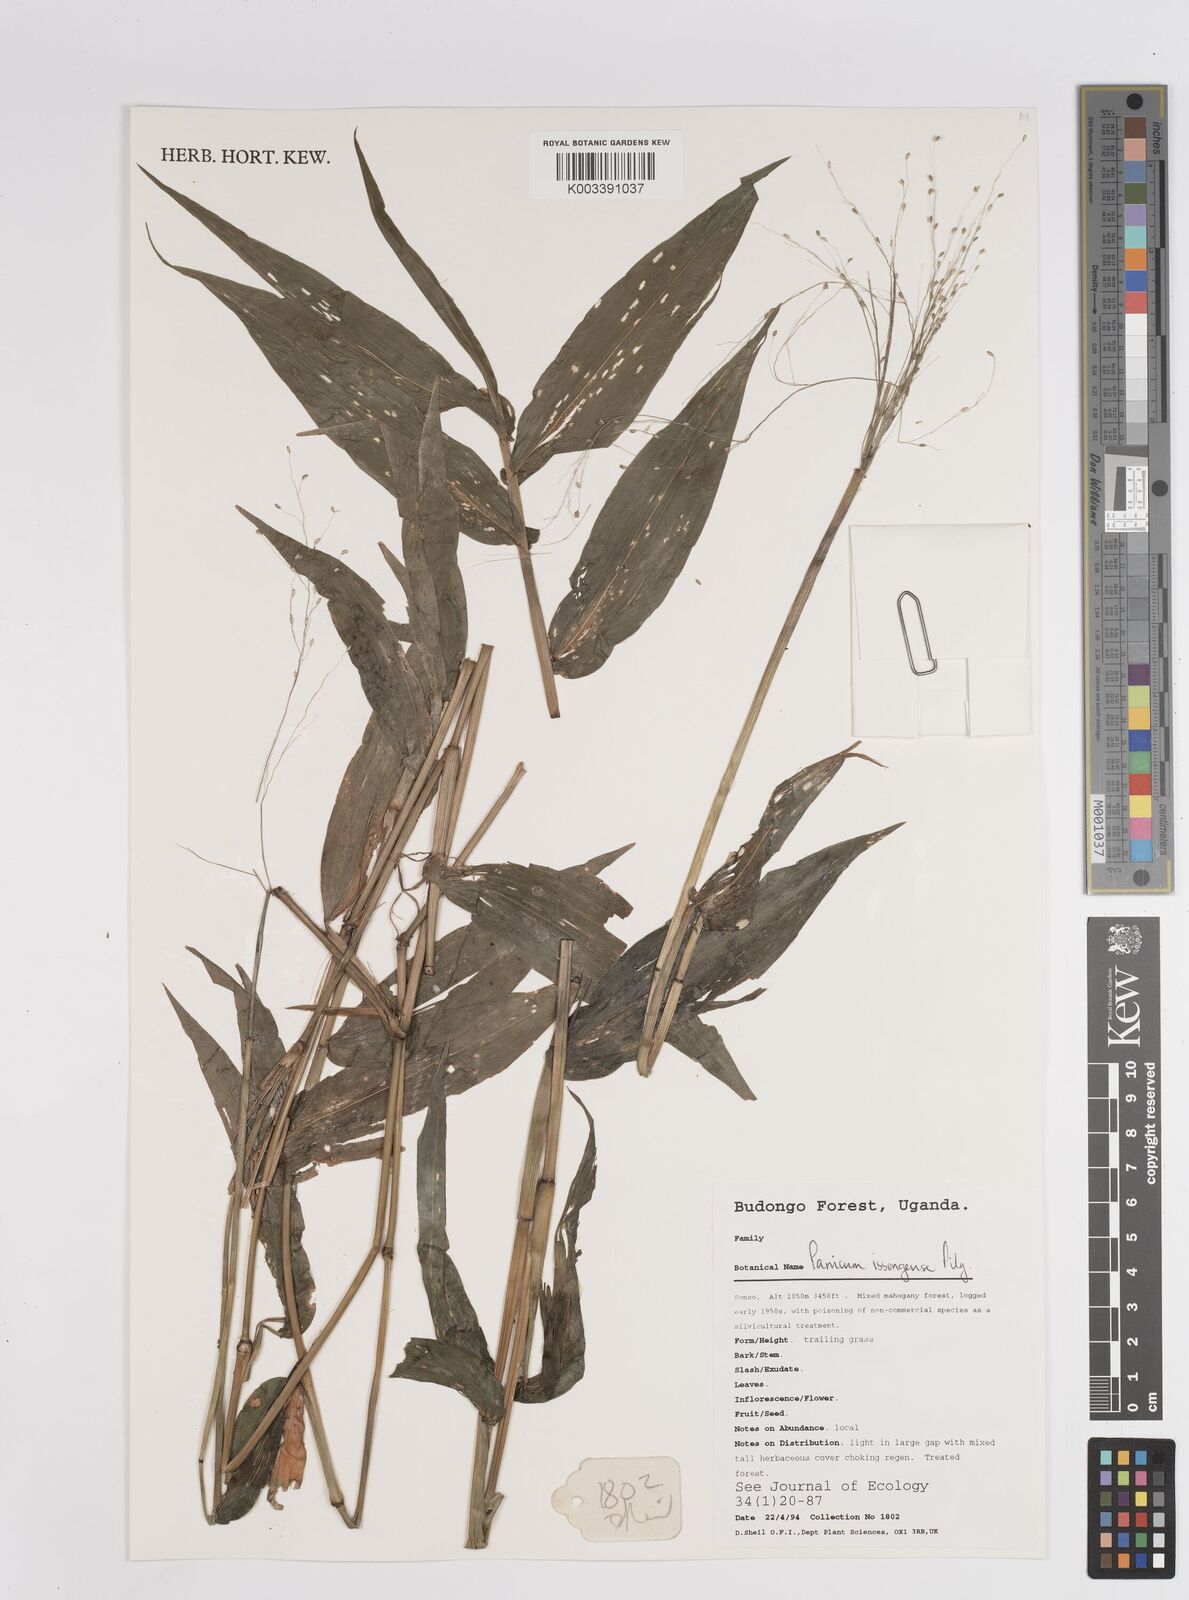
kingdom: Plantae
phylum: Tracheophyta
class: Liliopsida
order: Poales
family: Poaceae
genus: Panicum
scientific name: Panicum issongense
